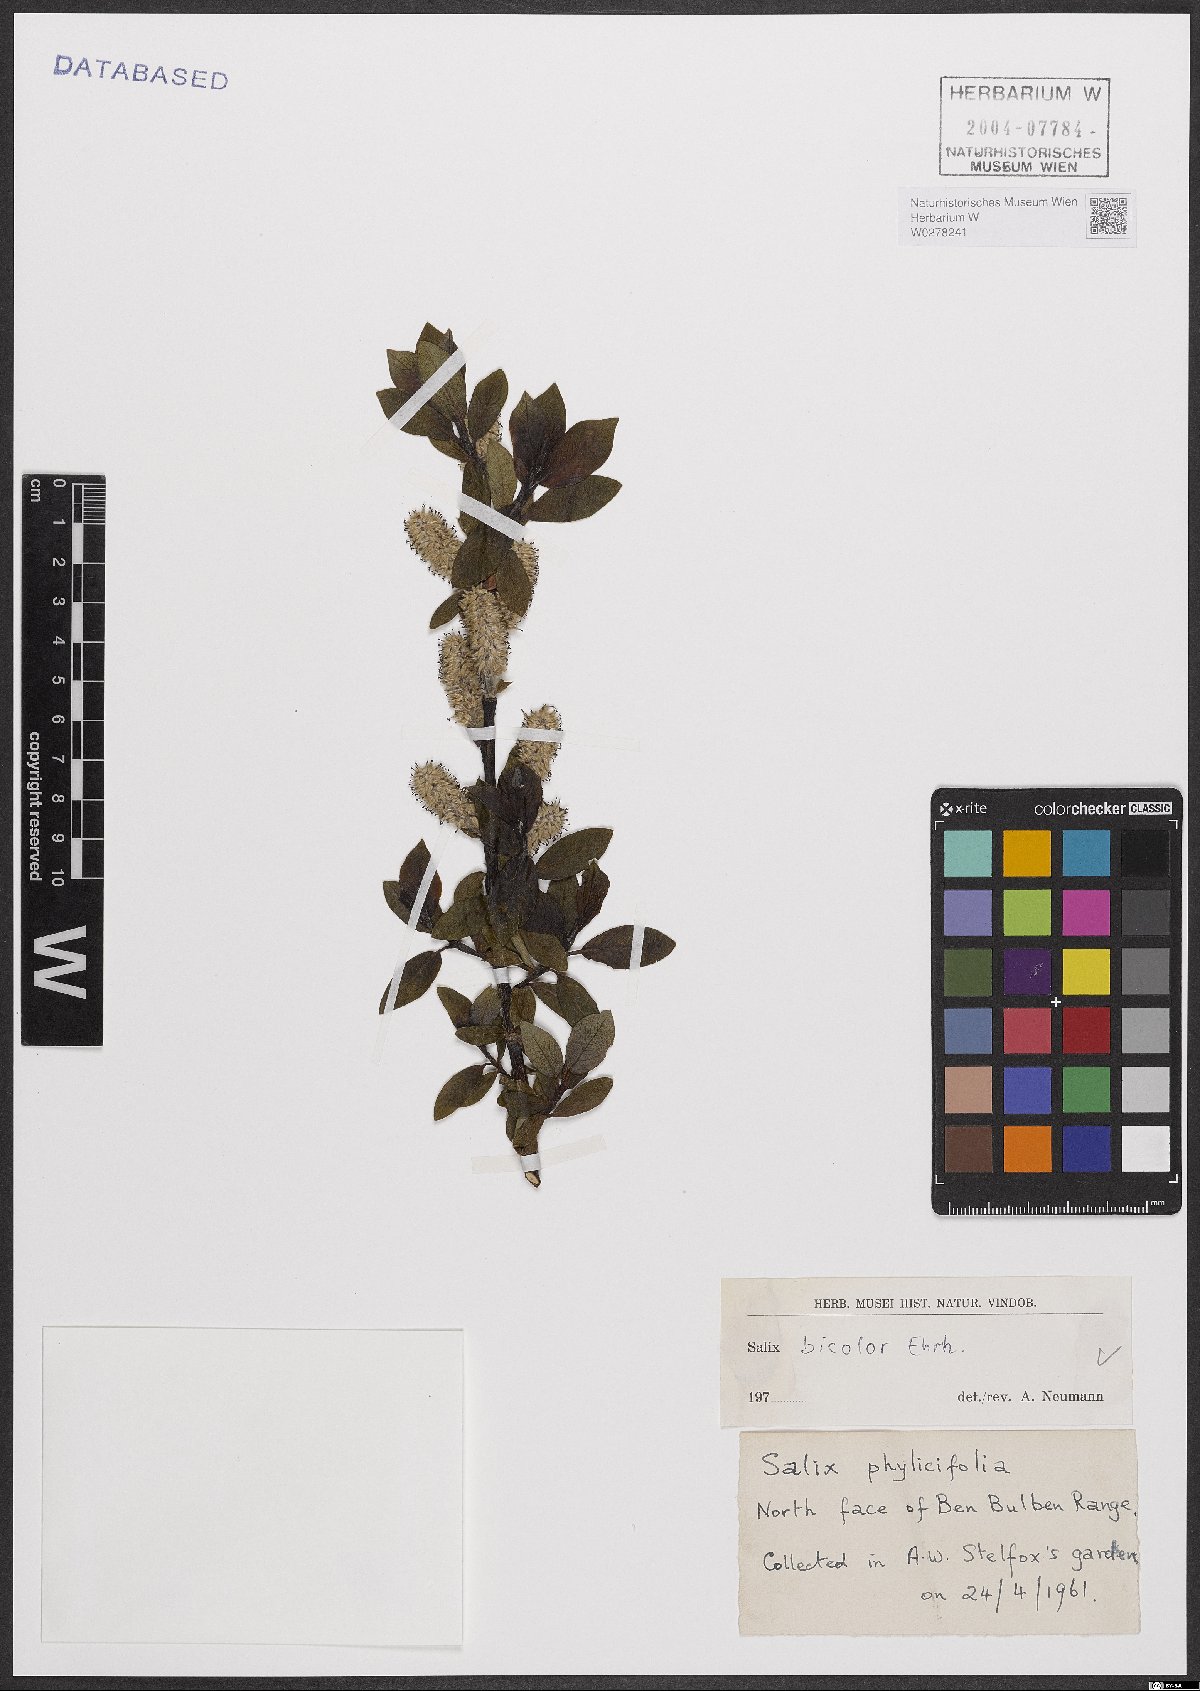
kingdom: Plantae
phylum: Tracheophyta
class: Magnoliopsida
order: Malpighiales
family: Salicaceae
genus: Salix
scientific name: Salix bicolor
